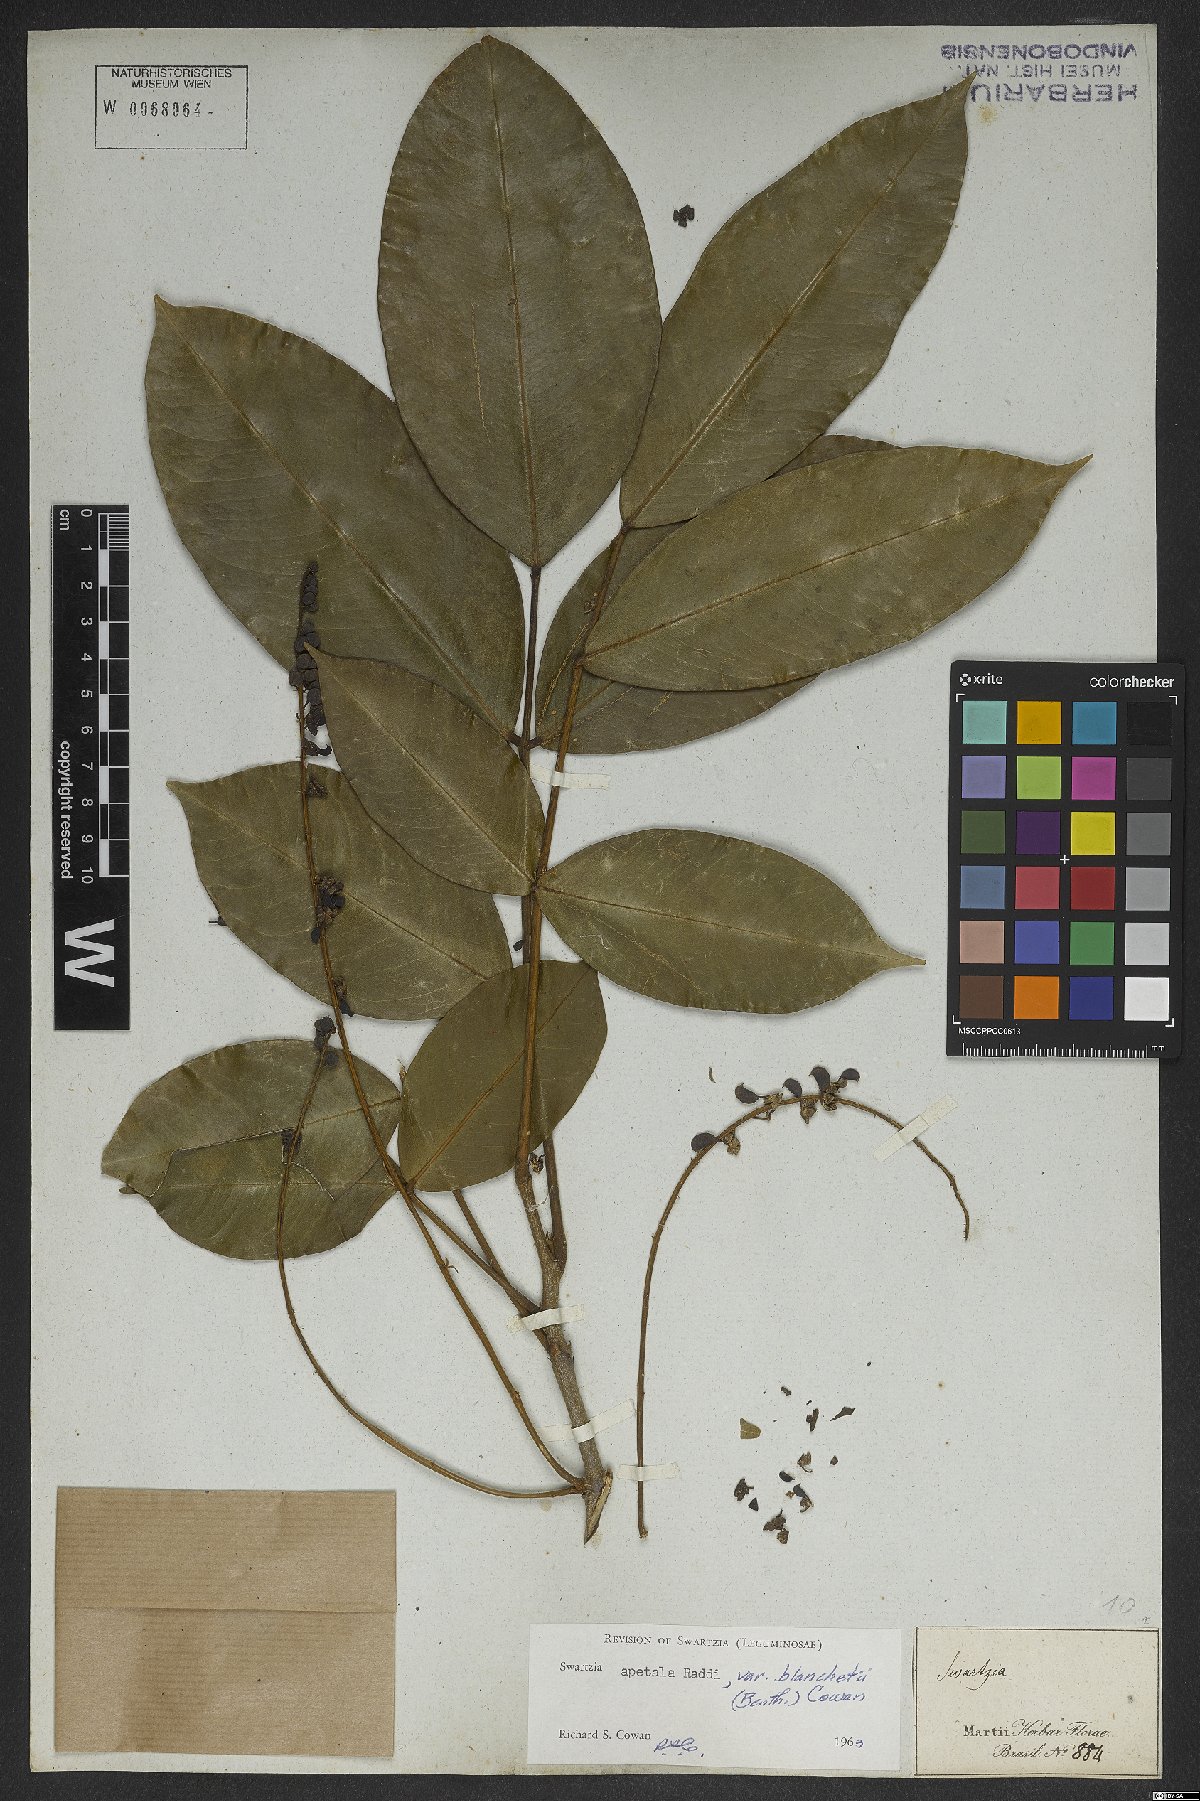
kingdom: Plantae
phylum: Tracheophyta
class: Magnoliopsida
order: Fabales
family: Fabaceae
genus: Swartzia
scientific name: Swartzia apetala
